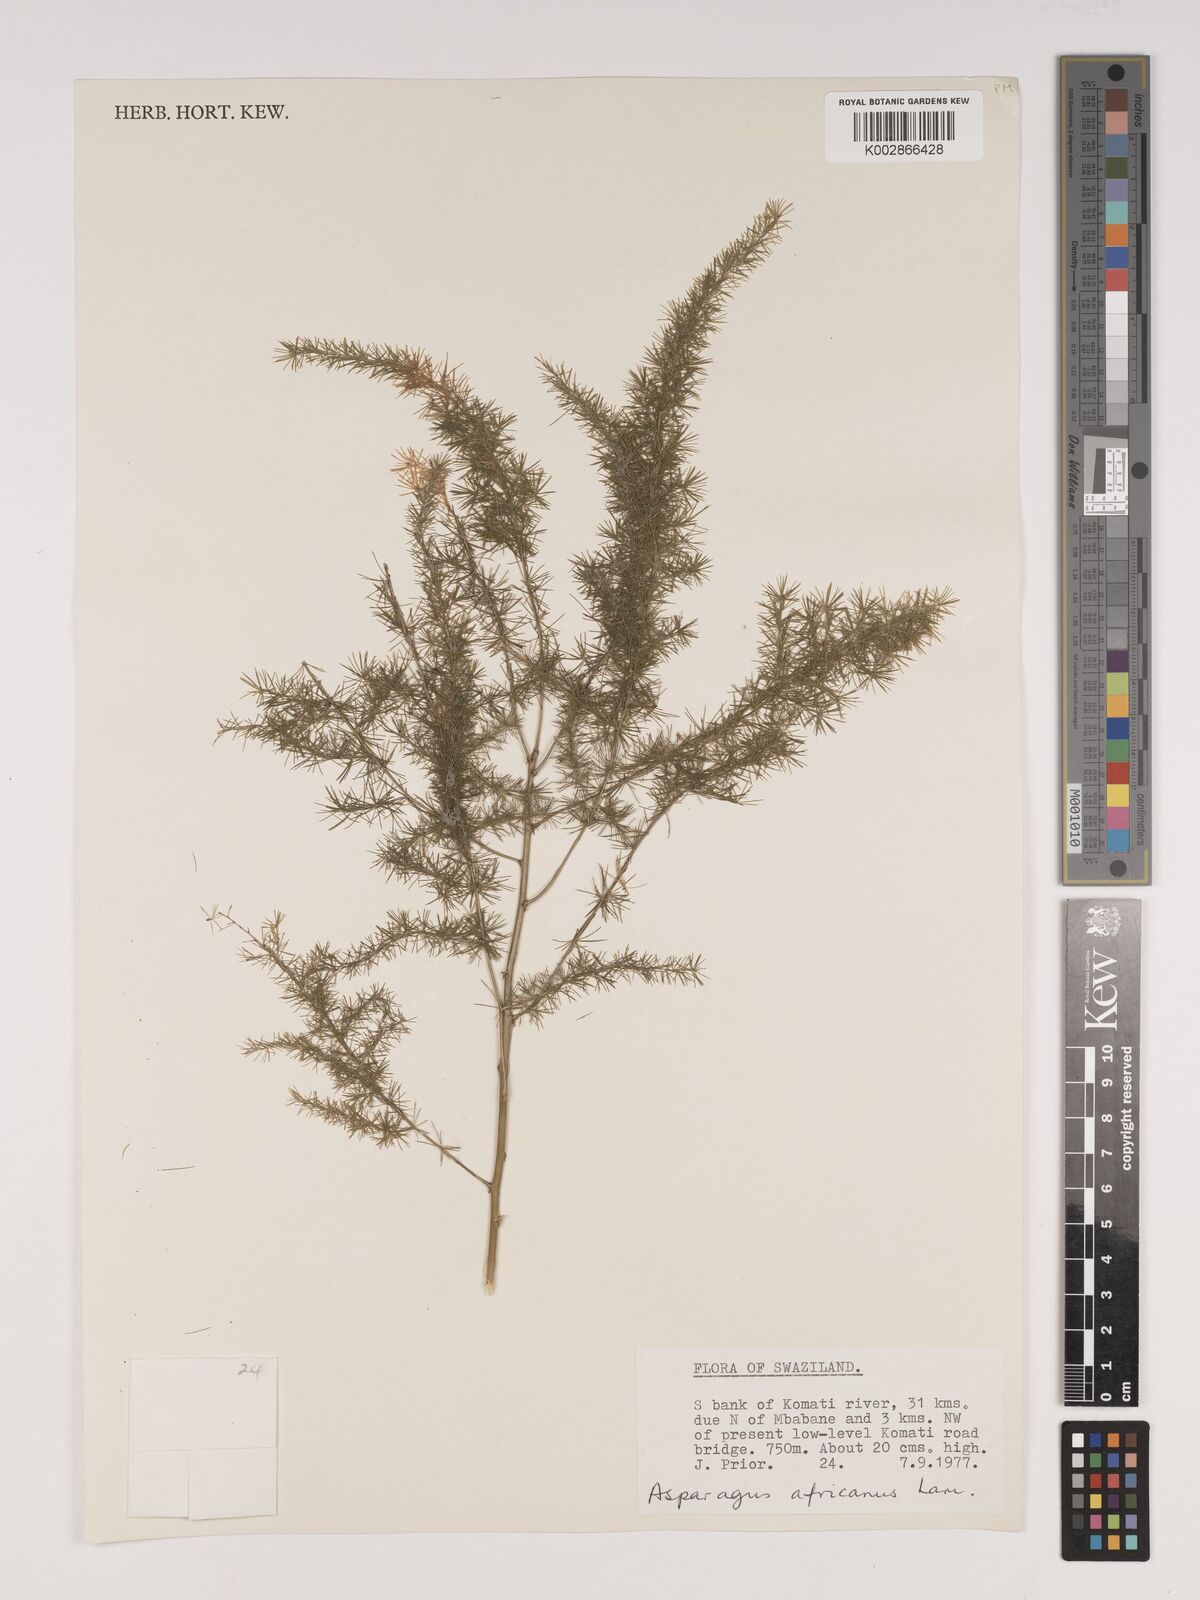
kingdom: Plantae
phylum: Tracheophyta
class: Liliopsida
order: Asparagales
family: Asparagaceae
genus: Asparagus
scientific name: Asparagus africanus
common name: Asparagus-fern
